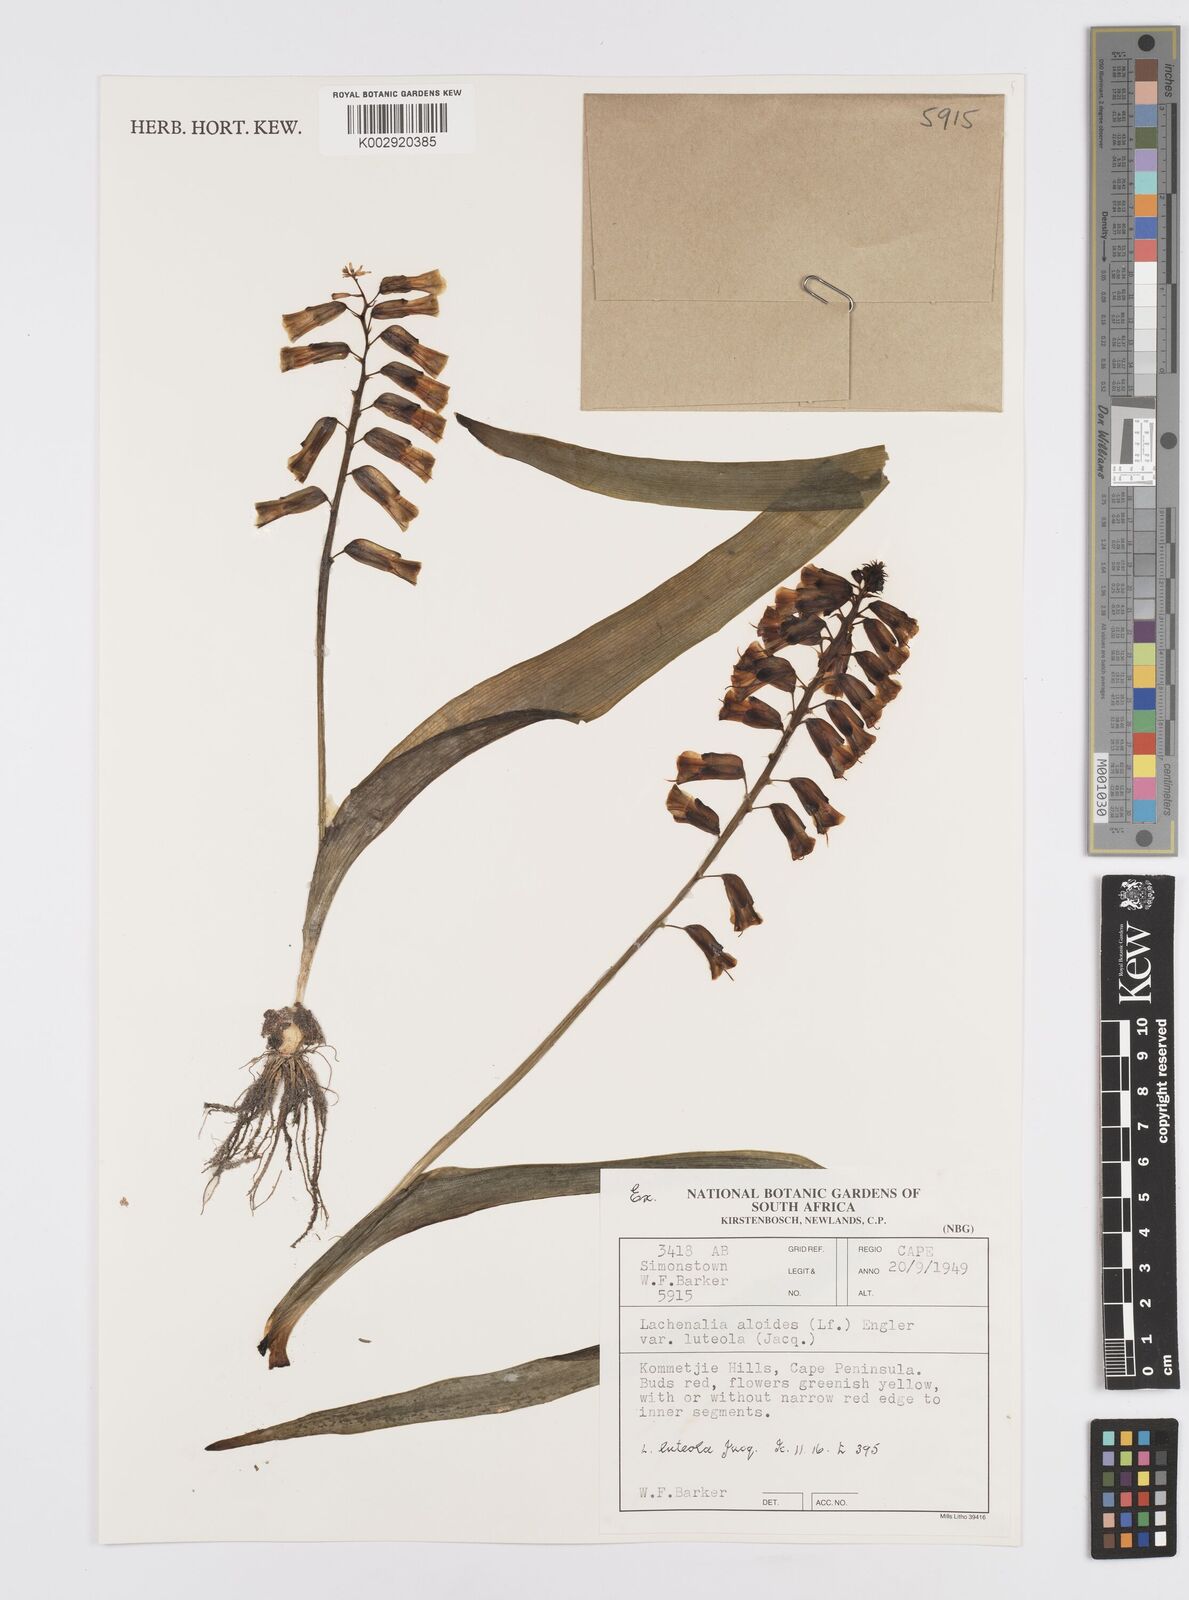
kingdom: Plantae
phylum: Tracheophyta
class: Liliopsida
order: Asparagales
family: Asparagaceae
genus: Lachenalia
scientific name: Lachenalia
